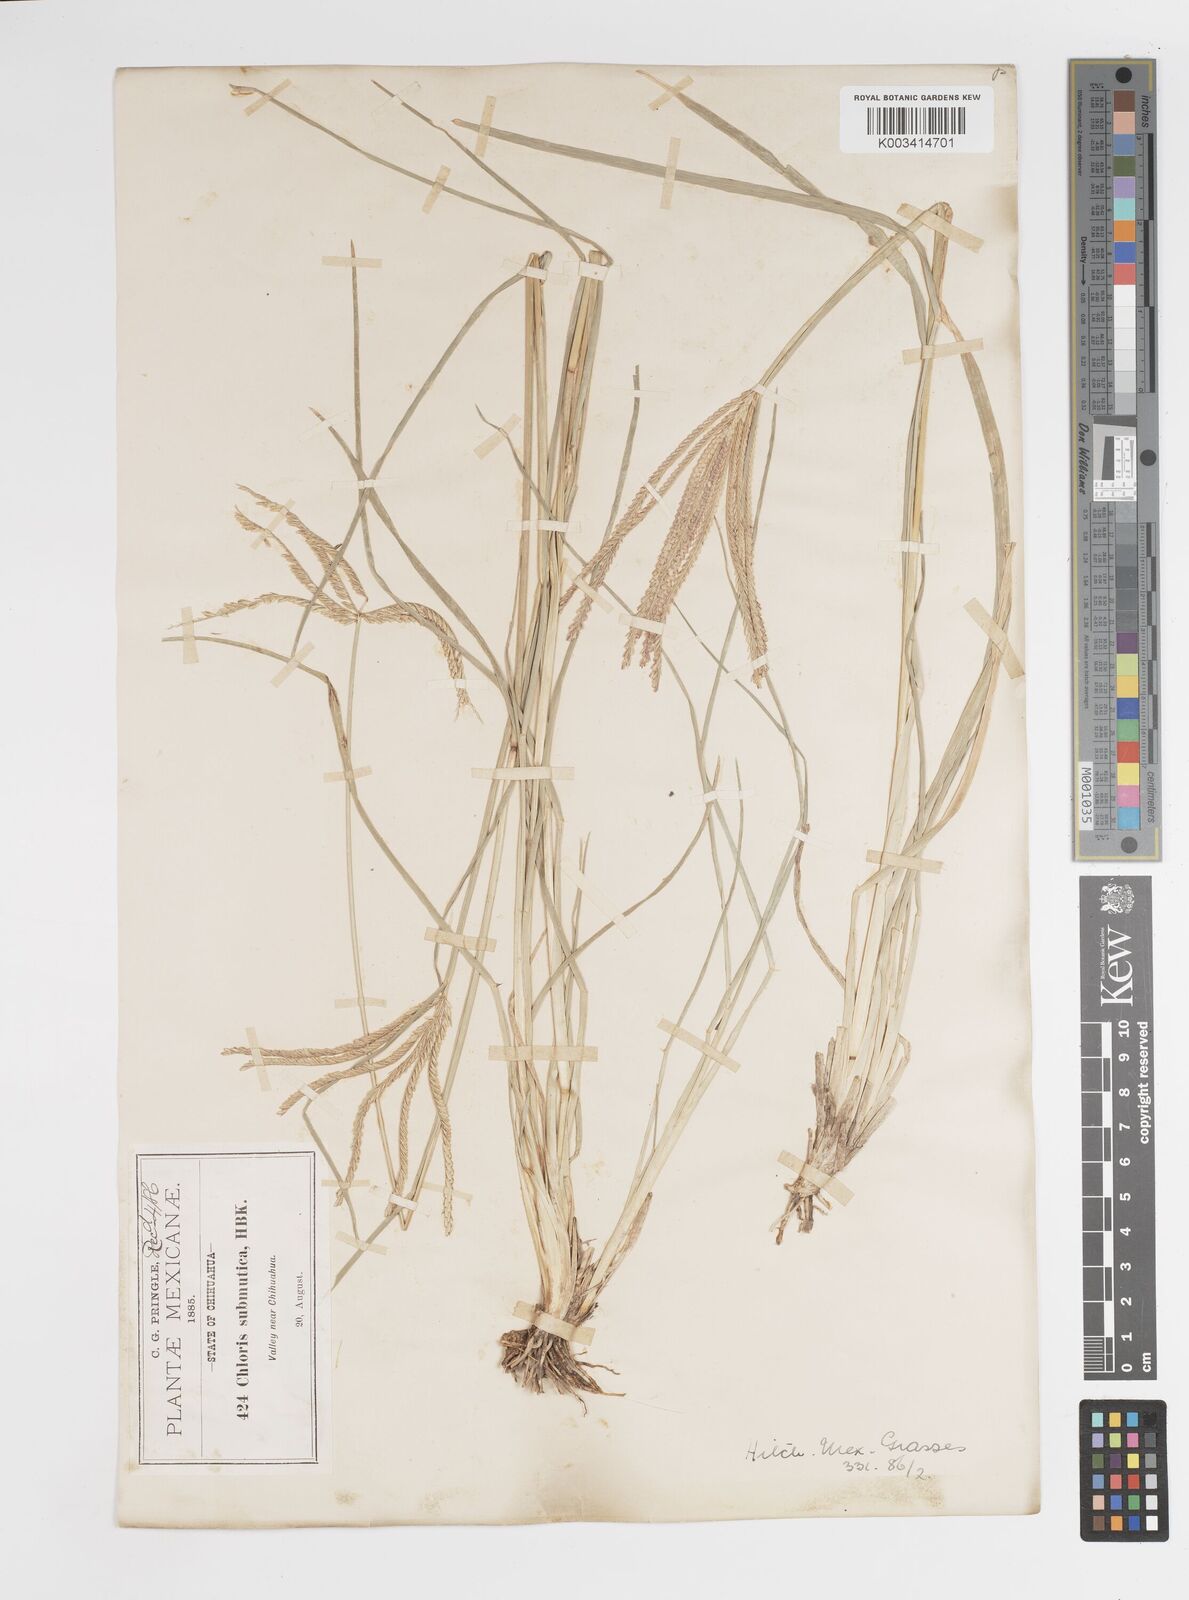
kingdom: Plantae
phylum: Tracheophyta
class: Liliopsida
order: Poales
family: Poaceae
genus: Chloris
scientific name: Chloris submutica
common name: Mexican windmill grass
